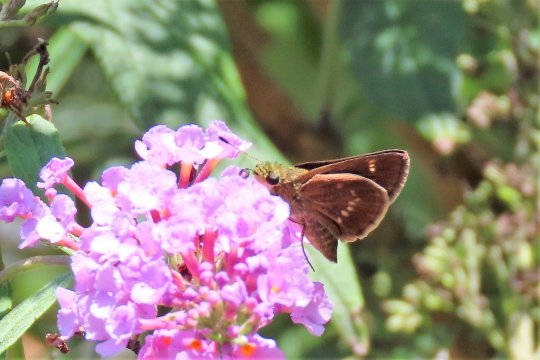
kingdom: Animalia
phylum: Arthropoda
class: Insecta
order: Lepidoptera
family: Hesperiidae
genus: Vernia
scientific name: Vernia verna
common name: Little Glassywing
